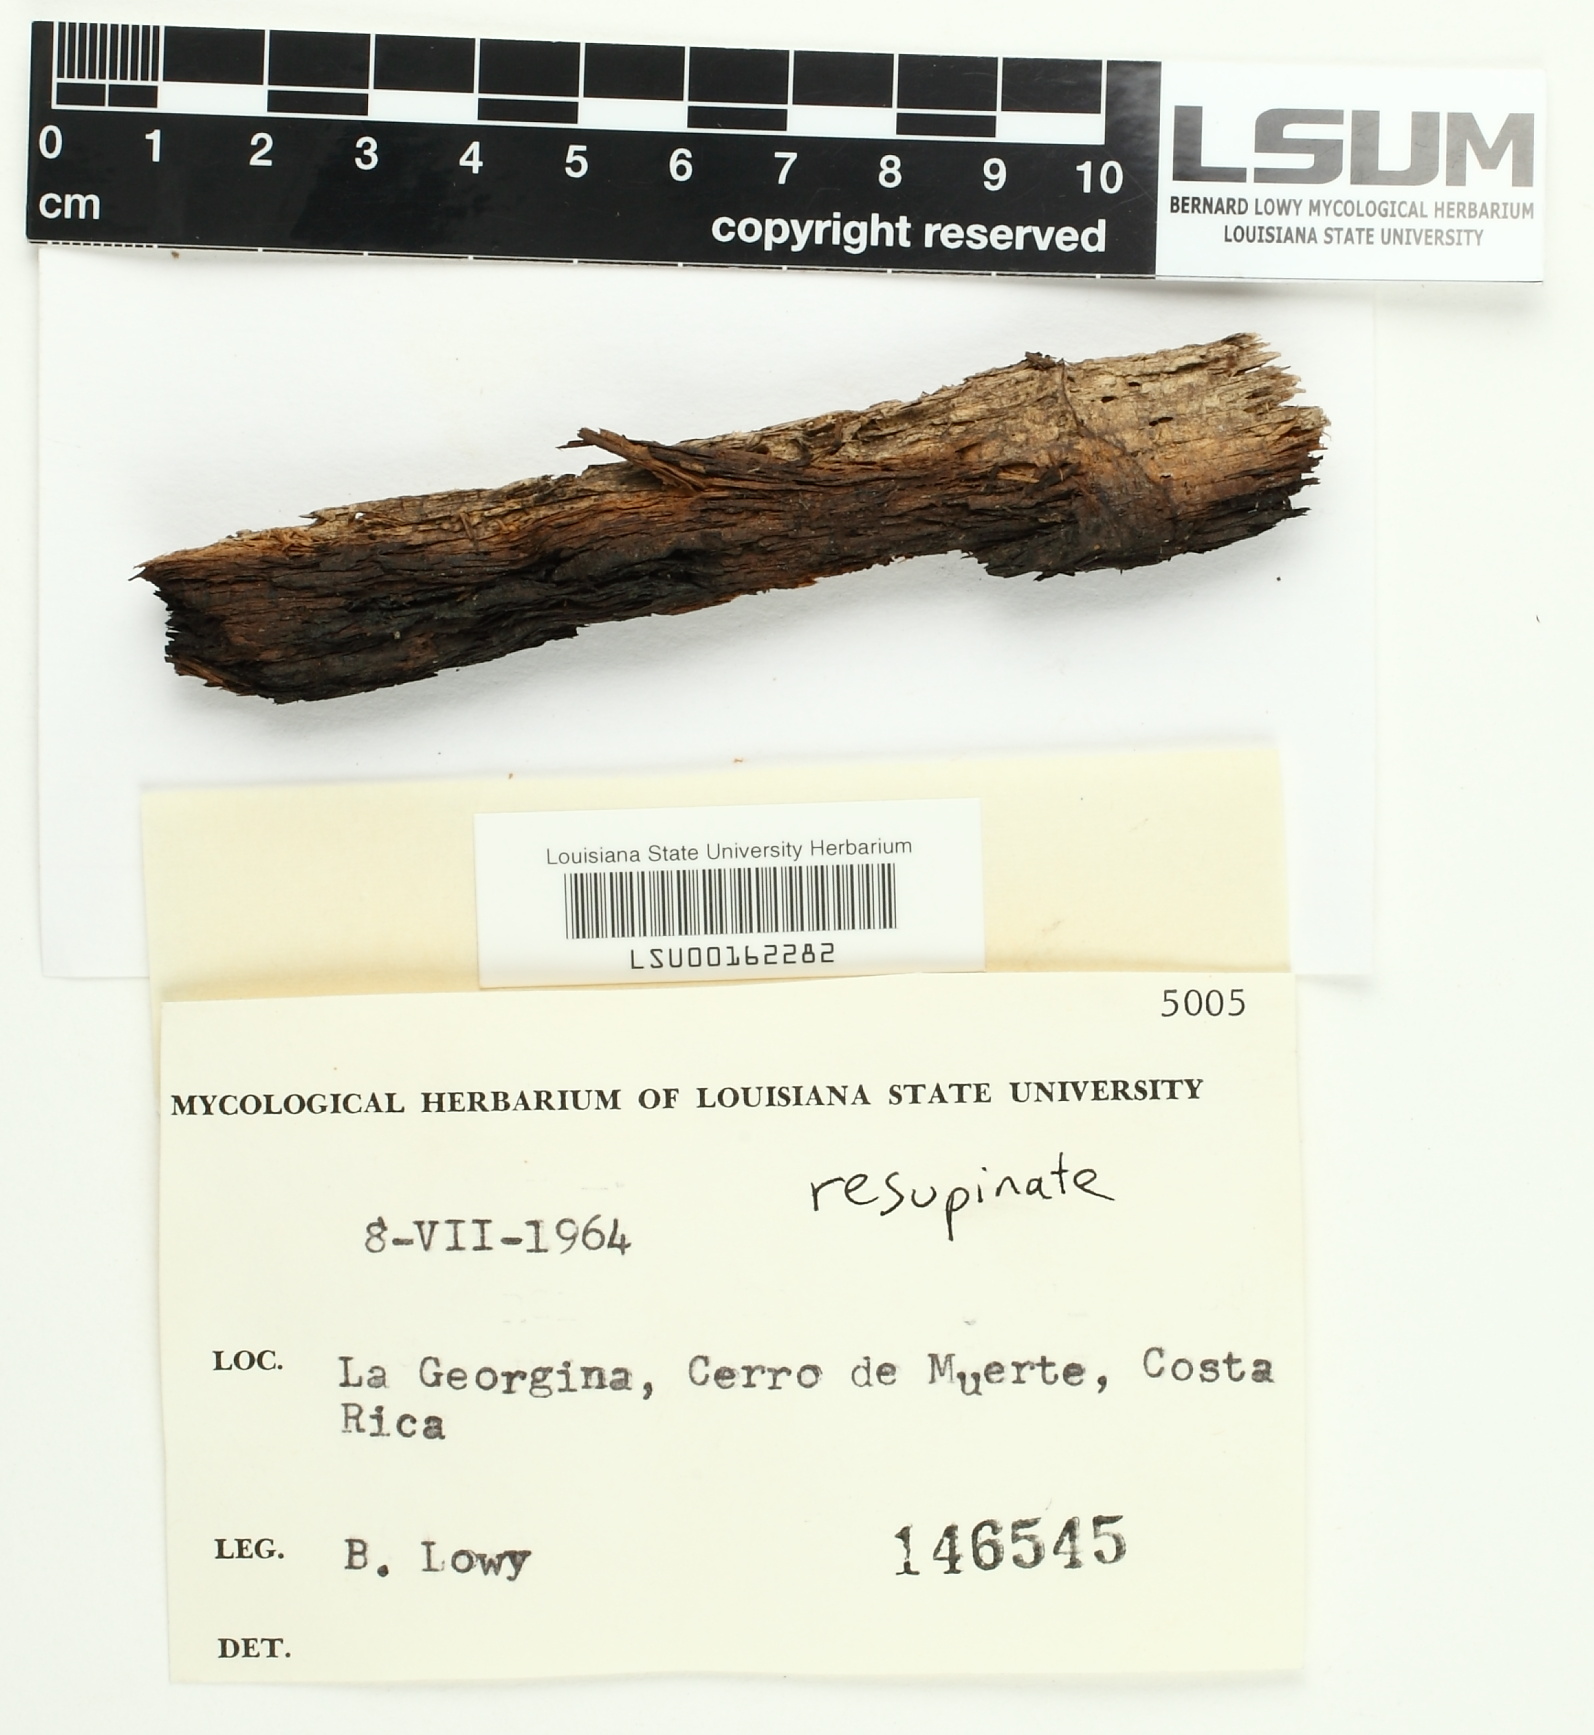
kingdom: Fungi
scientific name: Fungi
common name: Fungi
